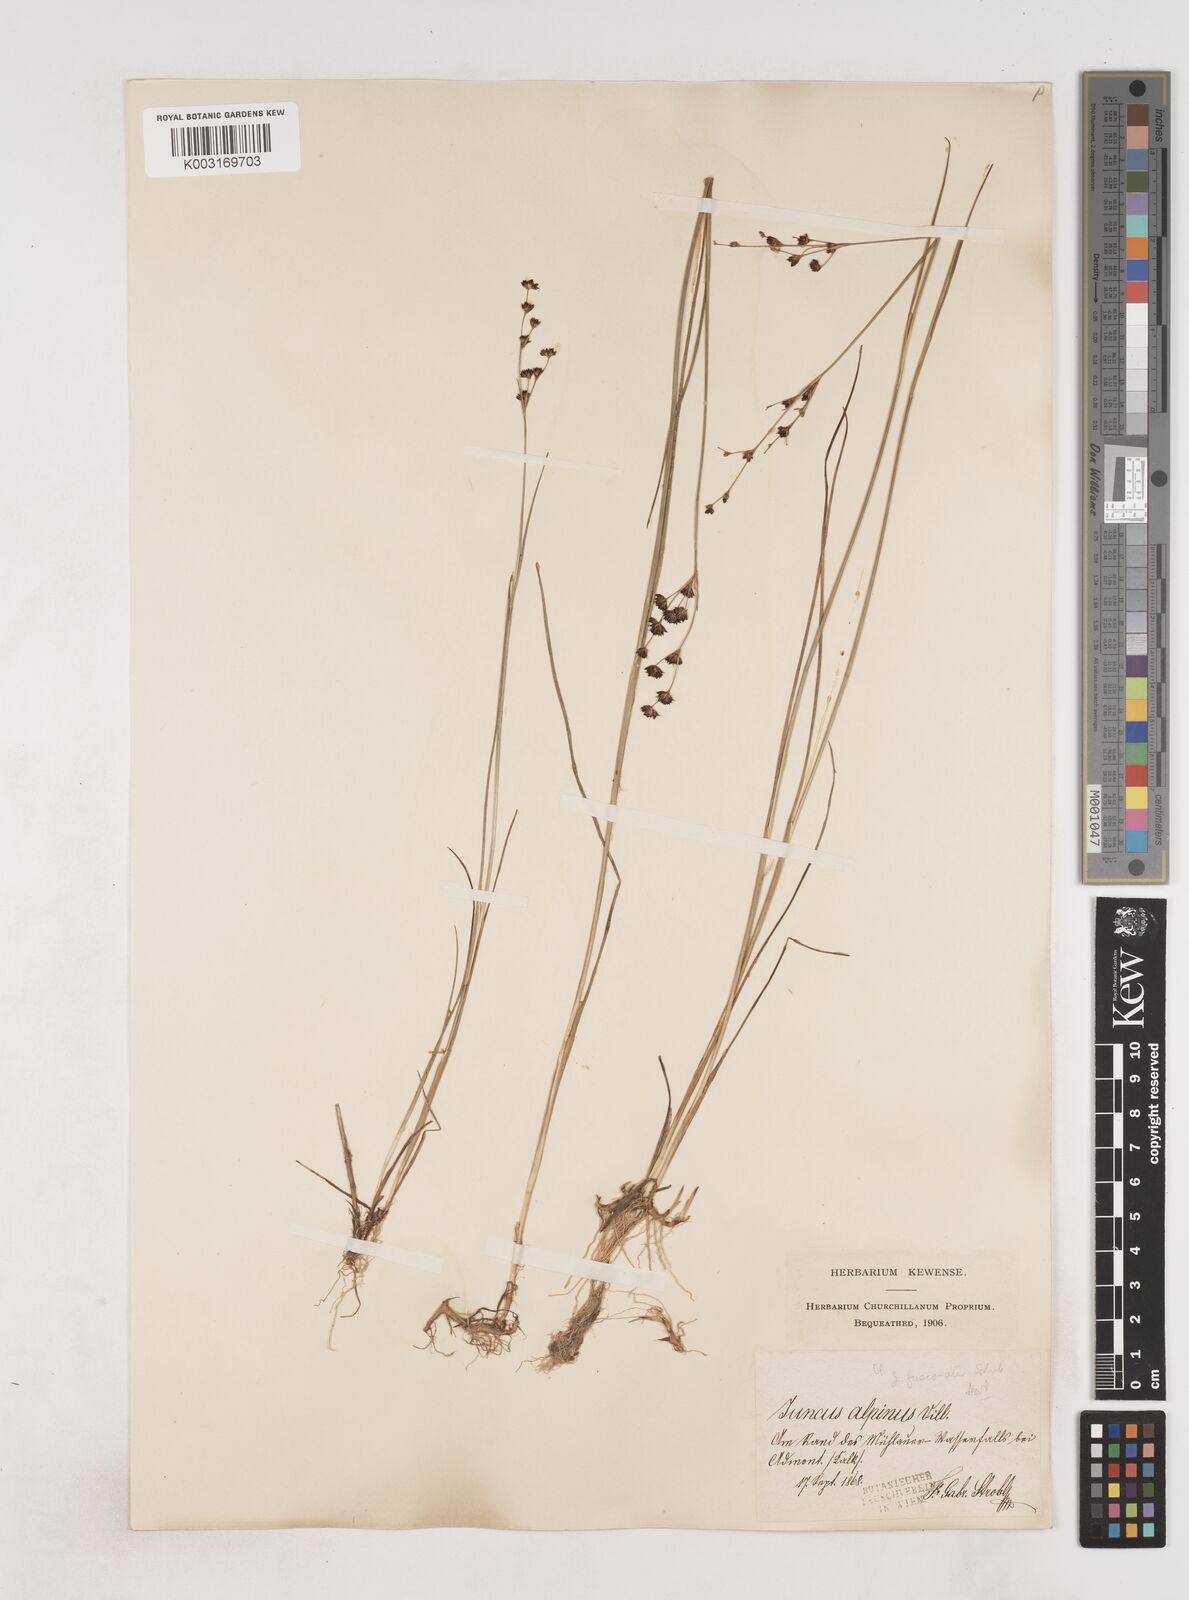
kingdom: Plantae
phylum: Tracheophyta
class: Liliopsida
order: Poales
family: Juncaceae
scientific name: Juncaceae
